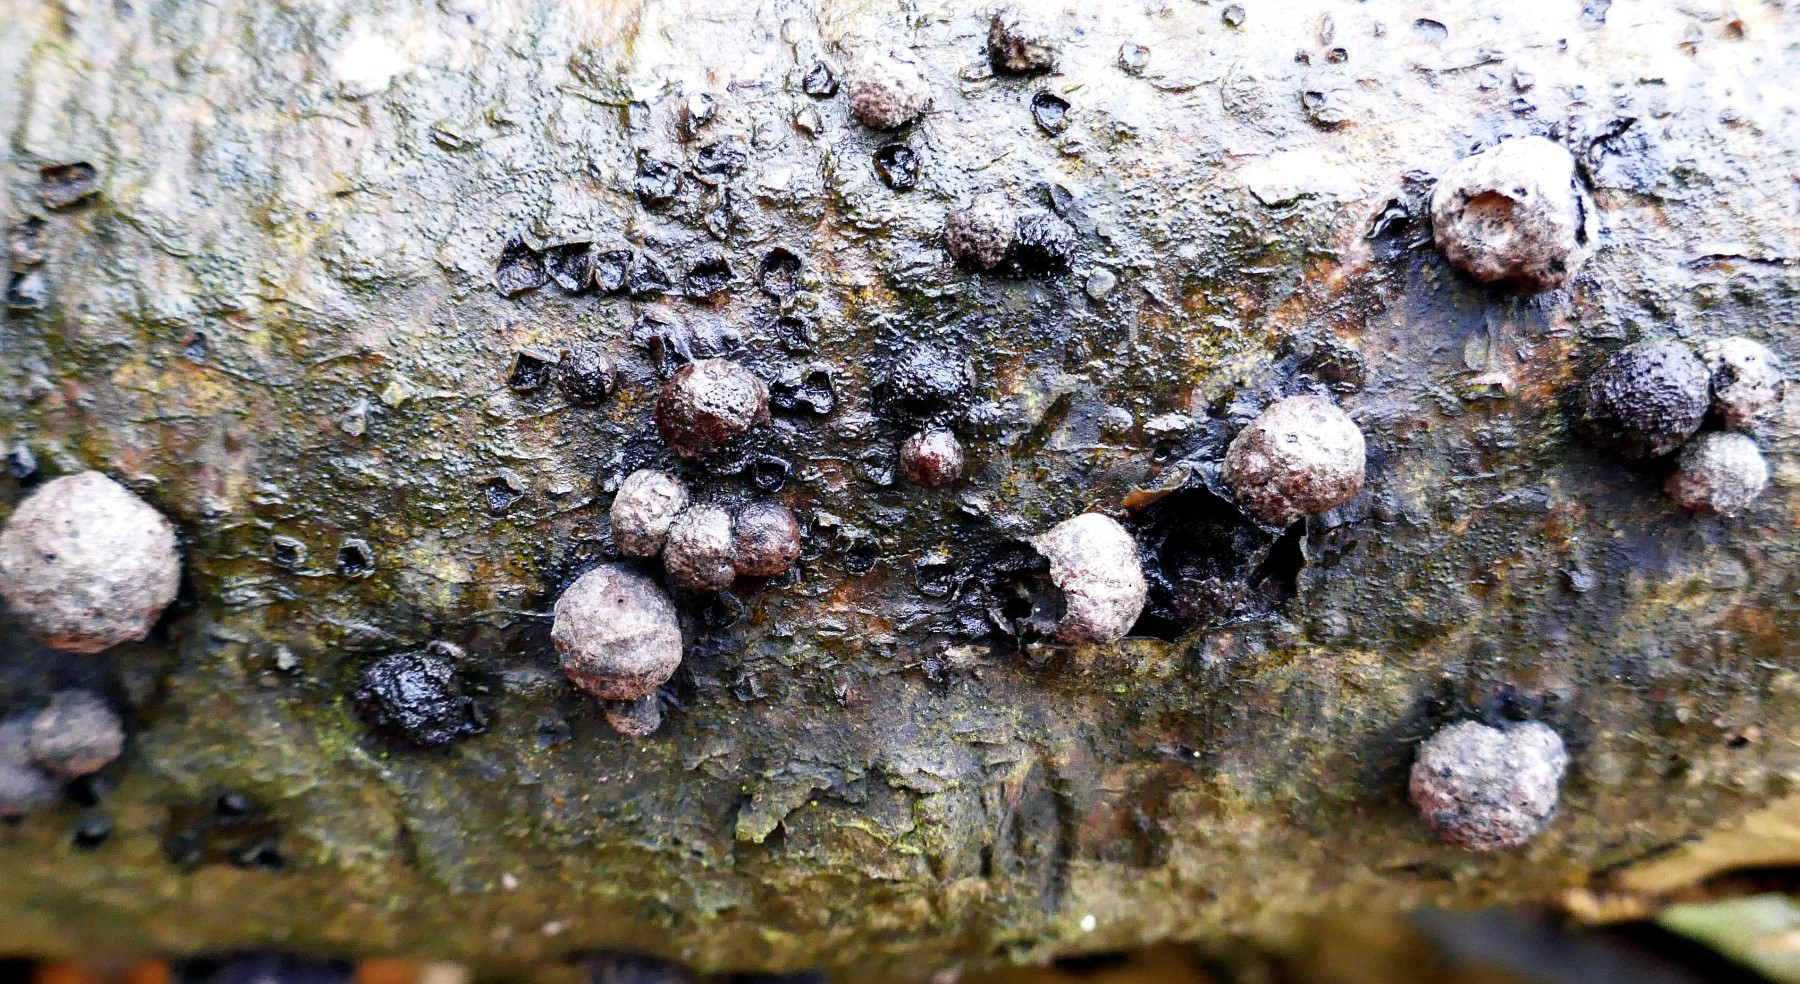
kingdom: Fungi
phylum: Ascomycota
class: Sordariomycetes
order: Xylariales
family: Hypoxylaceae
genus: Hypoxylon
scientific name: Hypoxylon fragiforme
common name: kuljordbær
